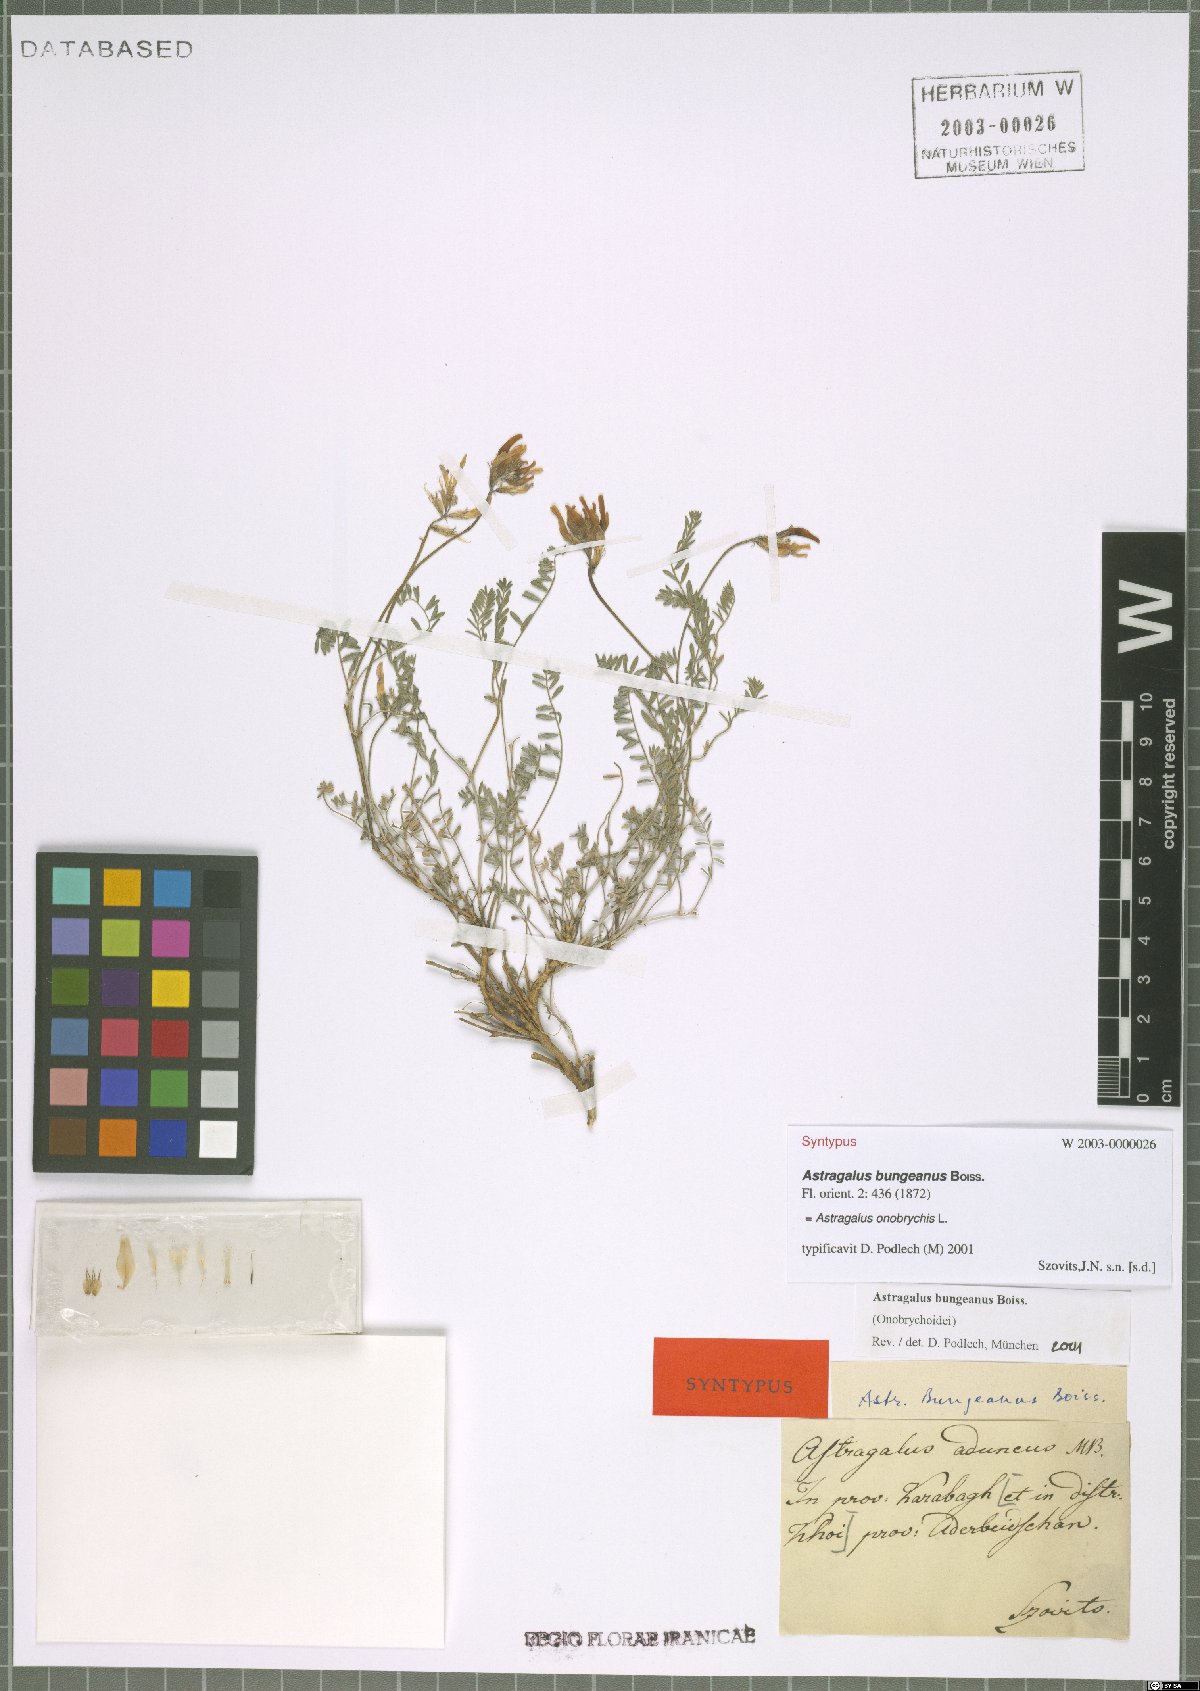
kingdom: Plantae
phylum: Tracheophyta
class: Magnoliopsida
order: Fabales
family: Fabaceae
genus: Astragalus
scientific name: Astragalus onobrychis
